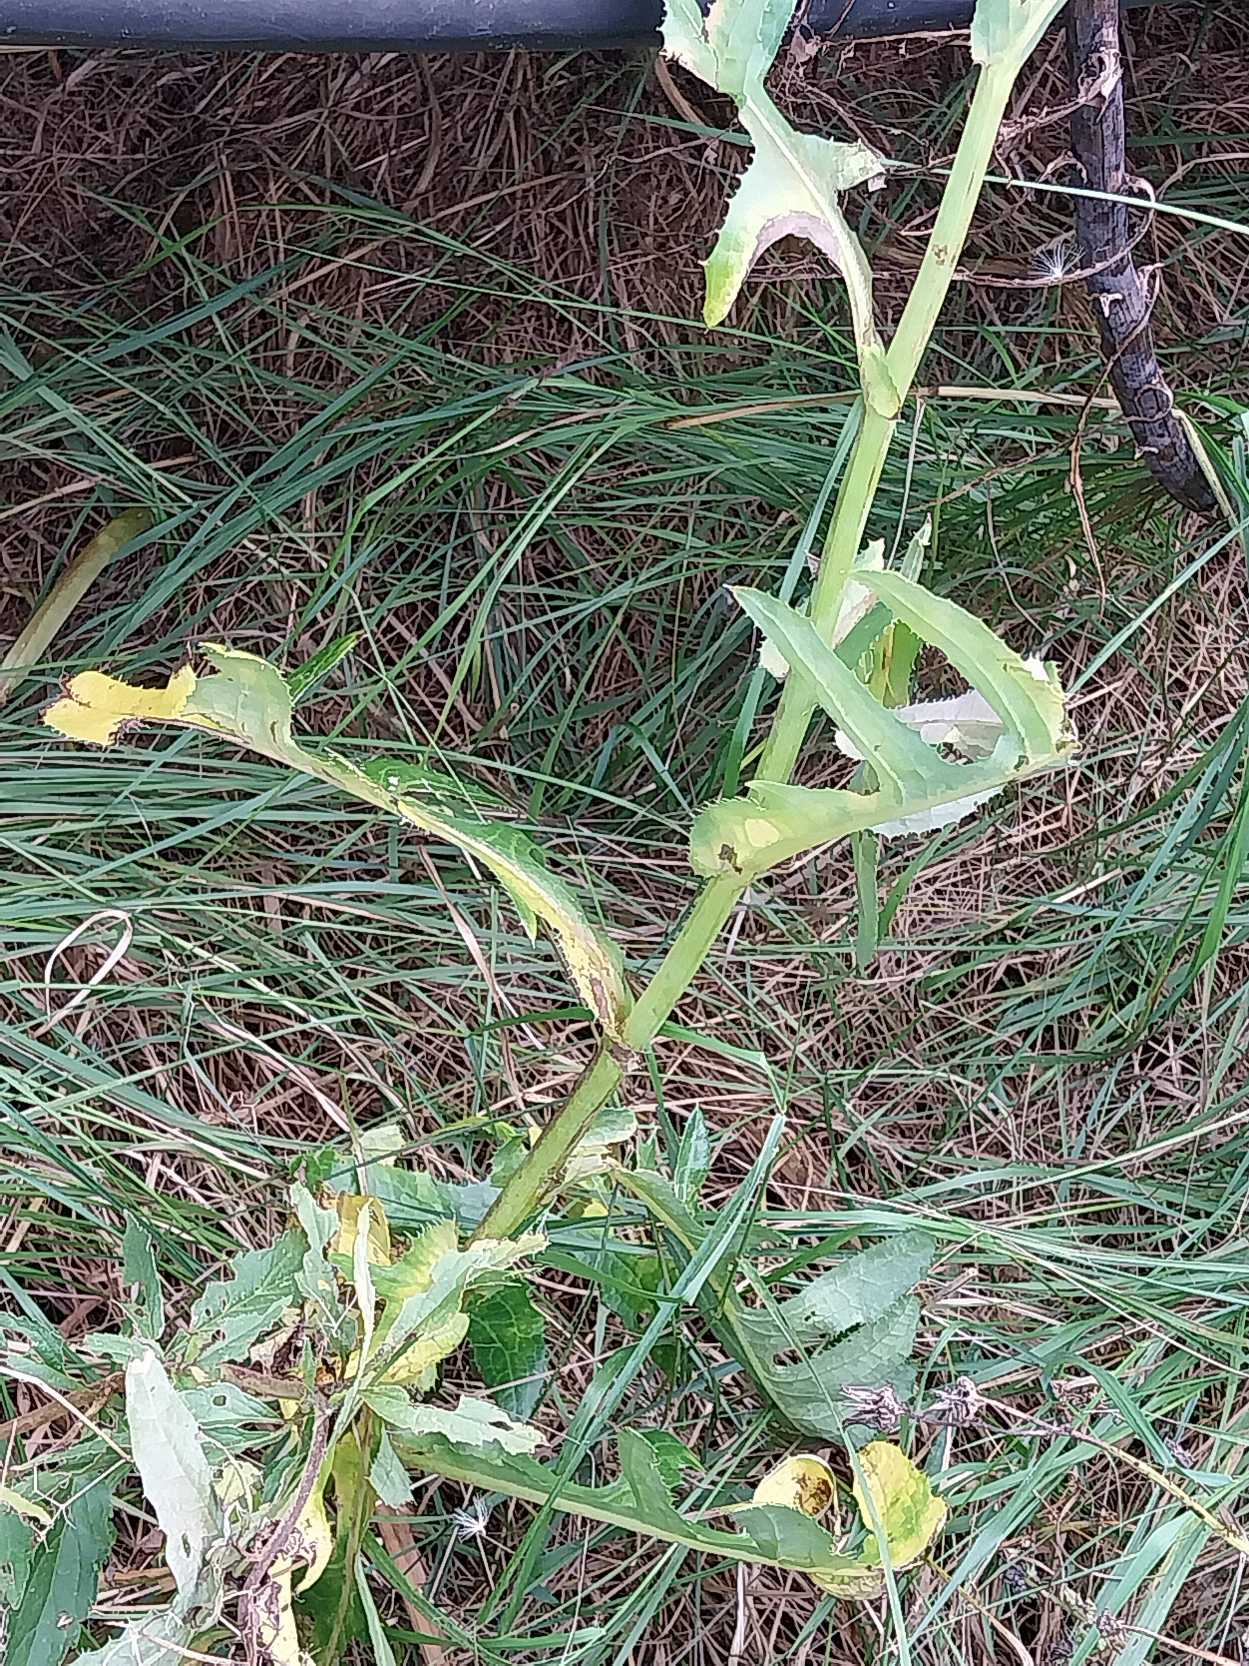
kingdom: Plantae
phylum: Tracheophyta
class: Magnoliopsida
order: Asterales
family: Asteraceae
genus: Sonchus
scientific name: Sonchus arvensis
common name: Ager-svinemælk
